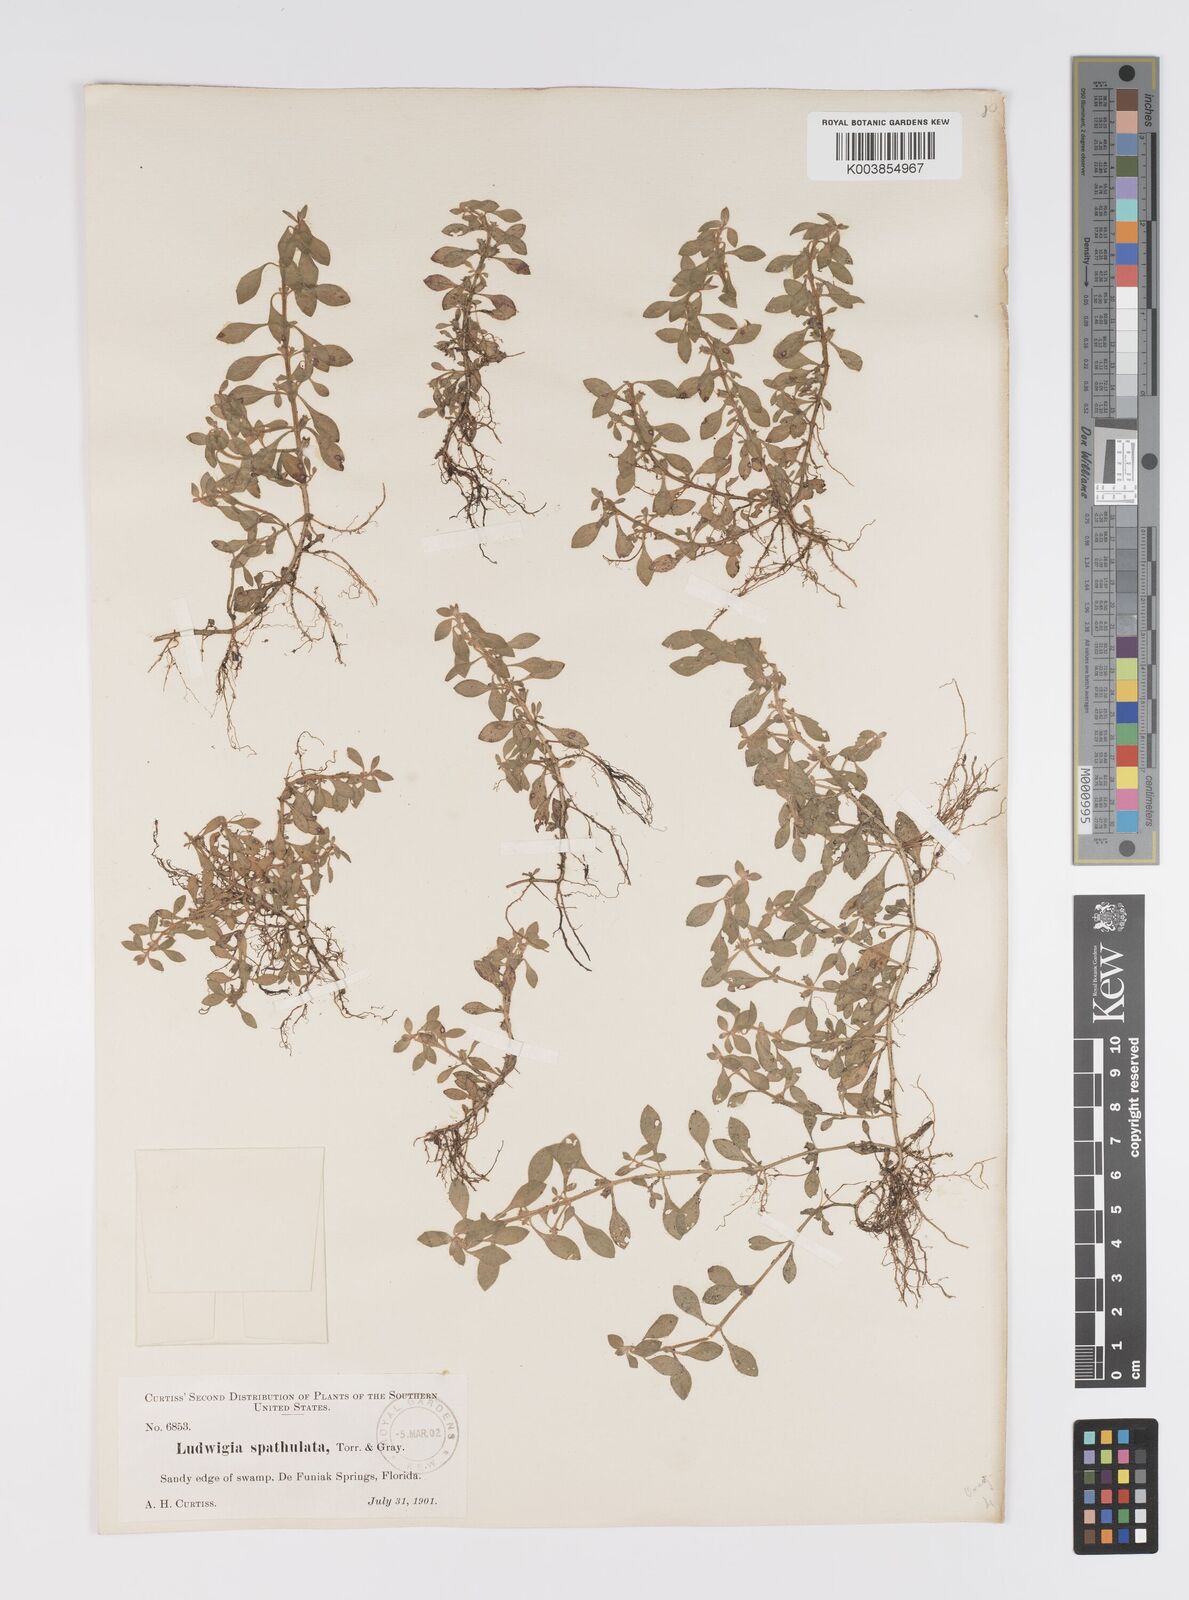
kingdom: Plantae
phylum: Tracheophyta
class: Magnoliopsida
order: Myrtales
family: Onagraceae
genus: Ludwigia
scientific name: Ludwigia spathulata
